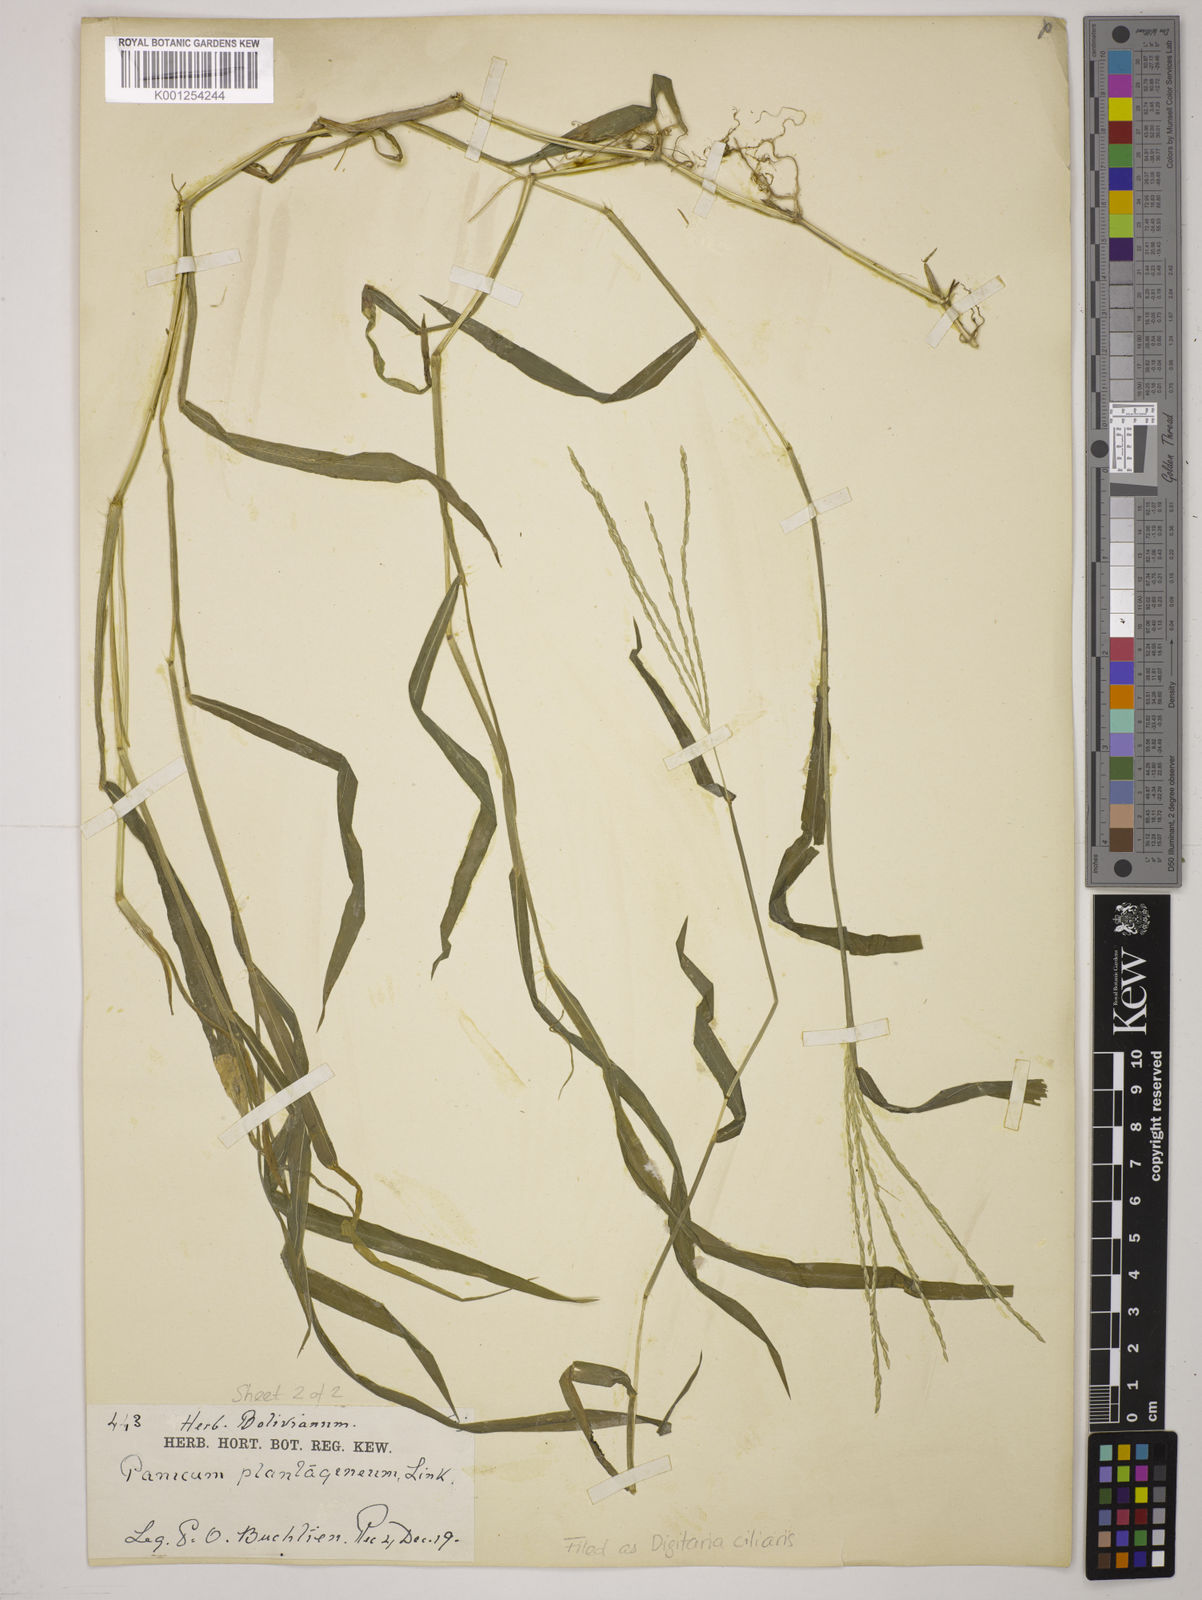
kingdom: Plantae
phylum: Tracheophyta
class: Liliopsida
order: Poales
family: Poaceae
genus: Digitaria
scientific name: Digitaria
